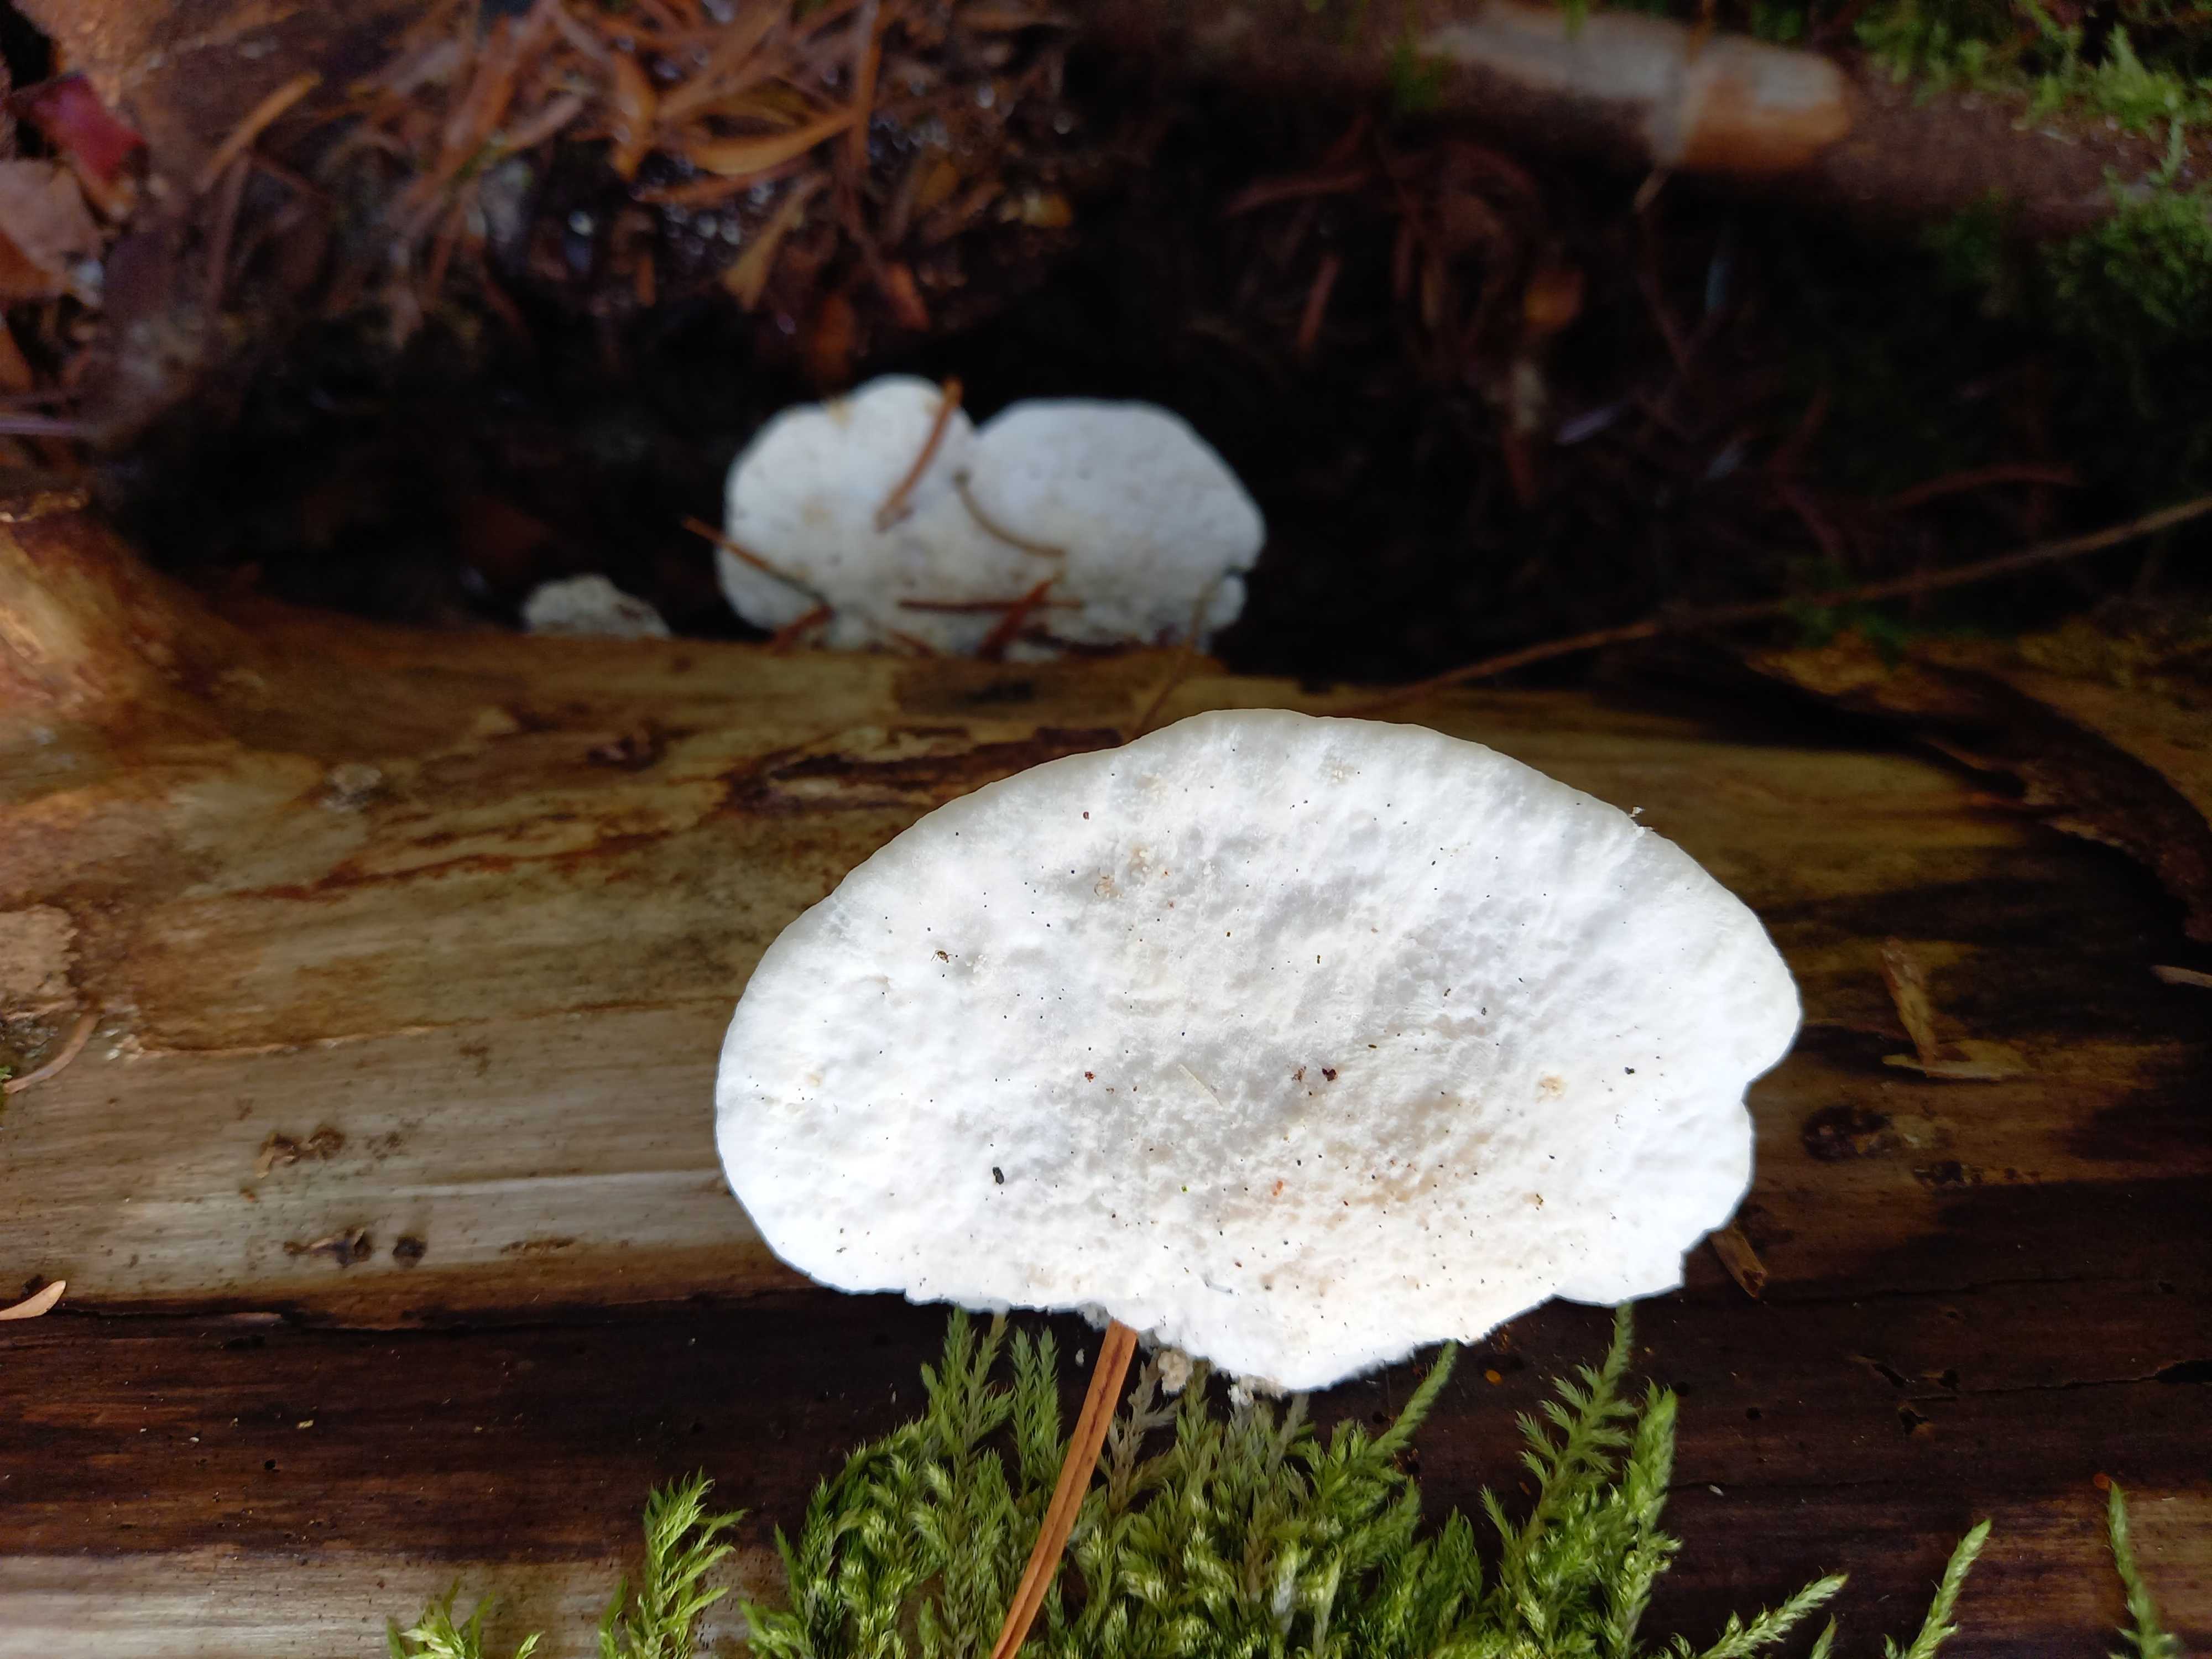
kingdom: Fungi
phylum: Basidiomycota
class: Agaricomycetes
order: Polyporales
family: Fomitopsidaceae
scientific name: Fomitopsidaceae
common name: hovporesvampfamilien
